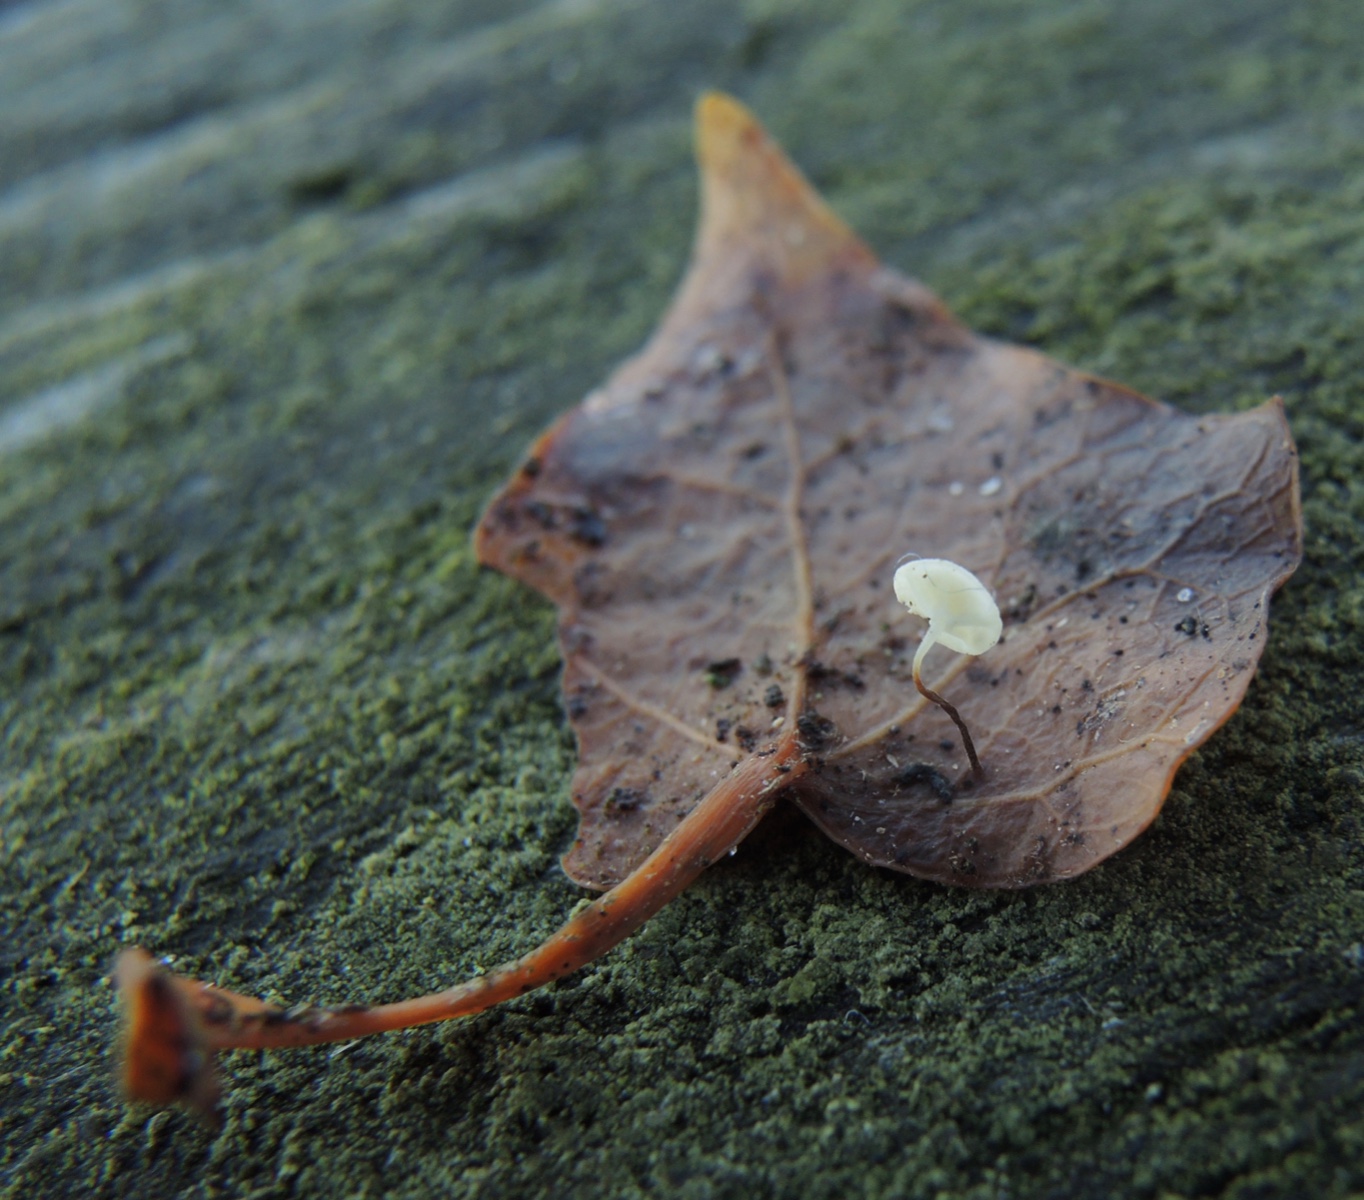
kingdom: Fungi
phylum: Basidiomycota
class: Agaricomycetes
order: Agaricales
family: Marasmiaceae
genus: Marasmius
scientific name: Marasmius epiphylloides
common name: vedbend-bruskhat
